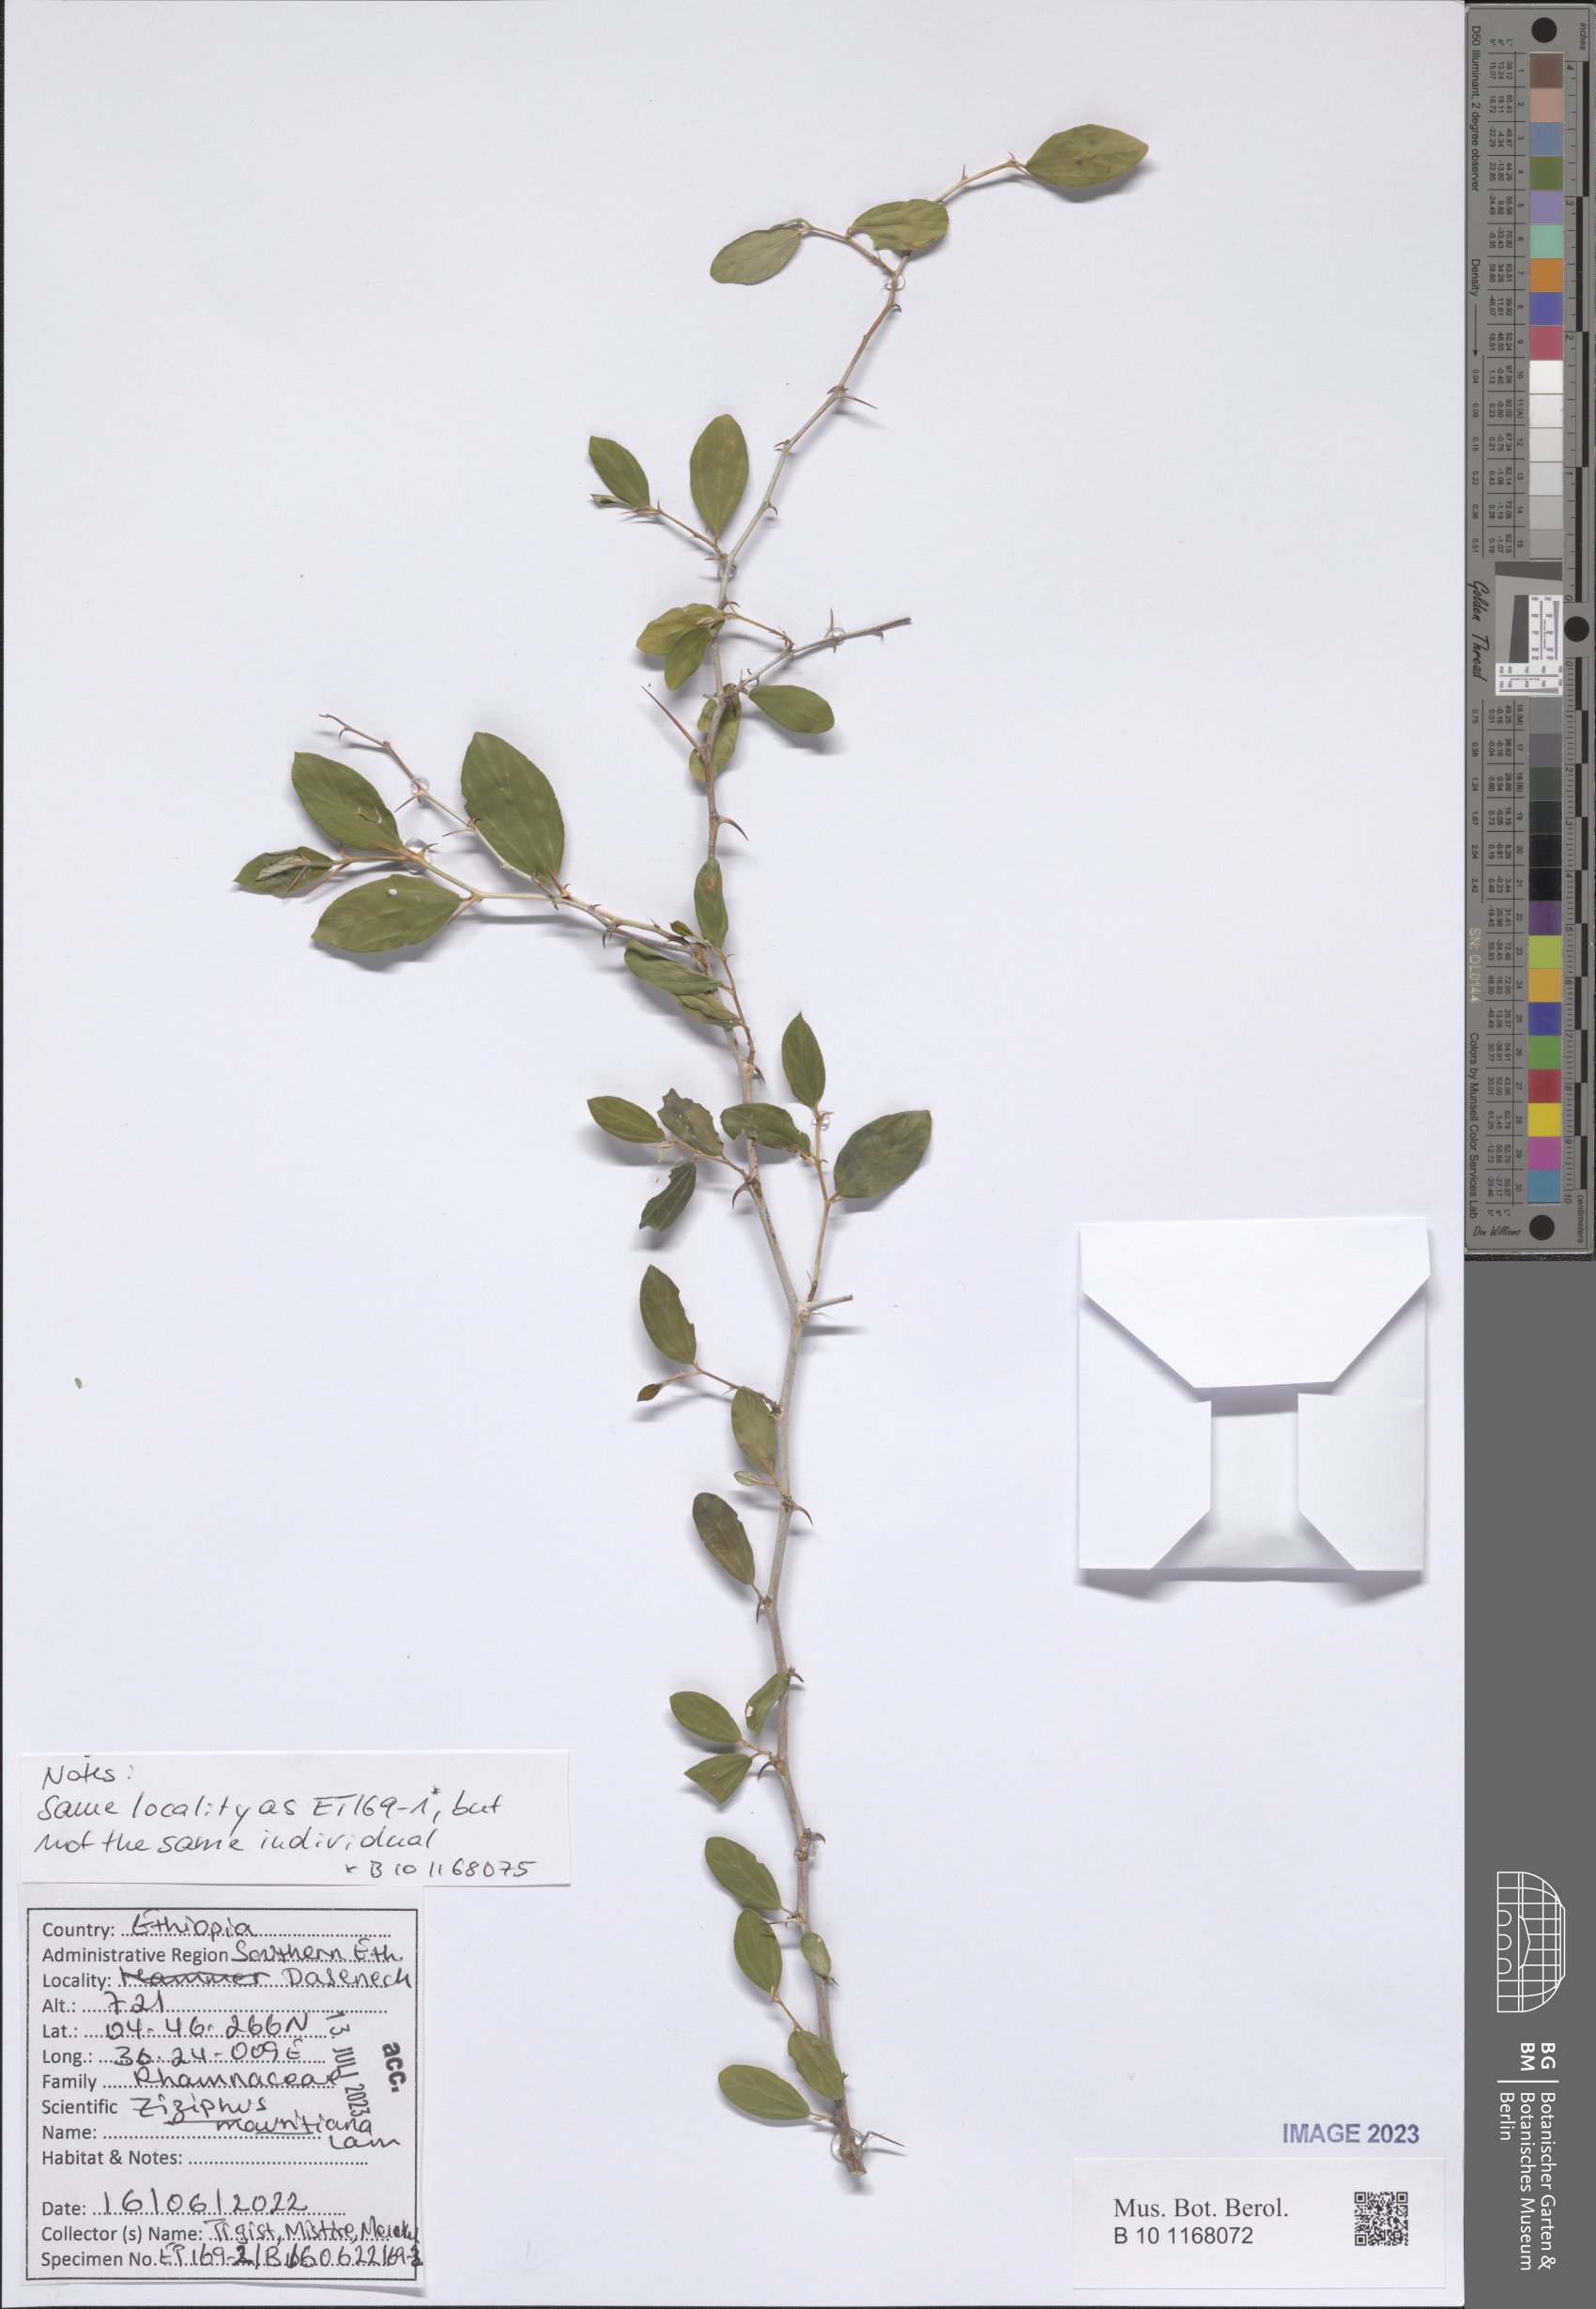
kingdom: Plantae
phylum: Tracheophyta
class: Magnoliopsida
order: Rosales
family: Rhamnaceae
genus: Ziziphus
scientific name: Ziziphus mauritiana
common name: Indian jujube
